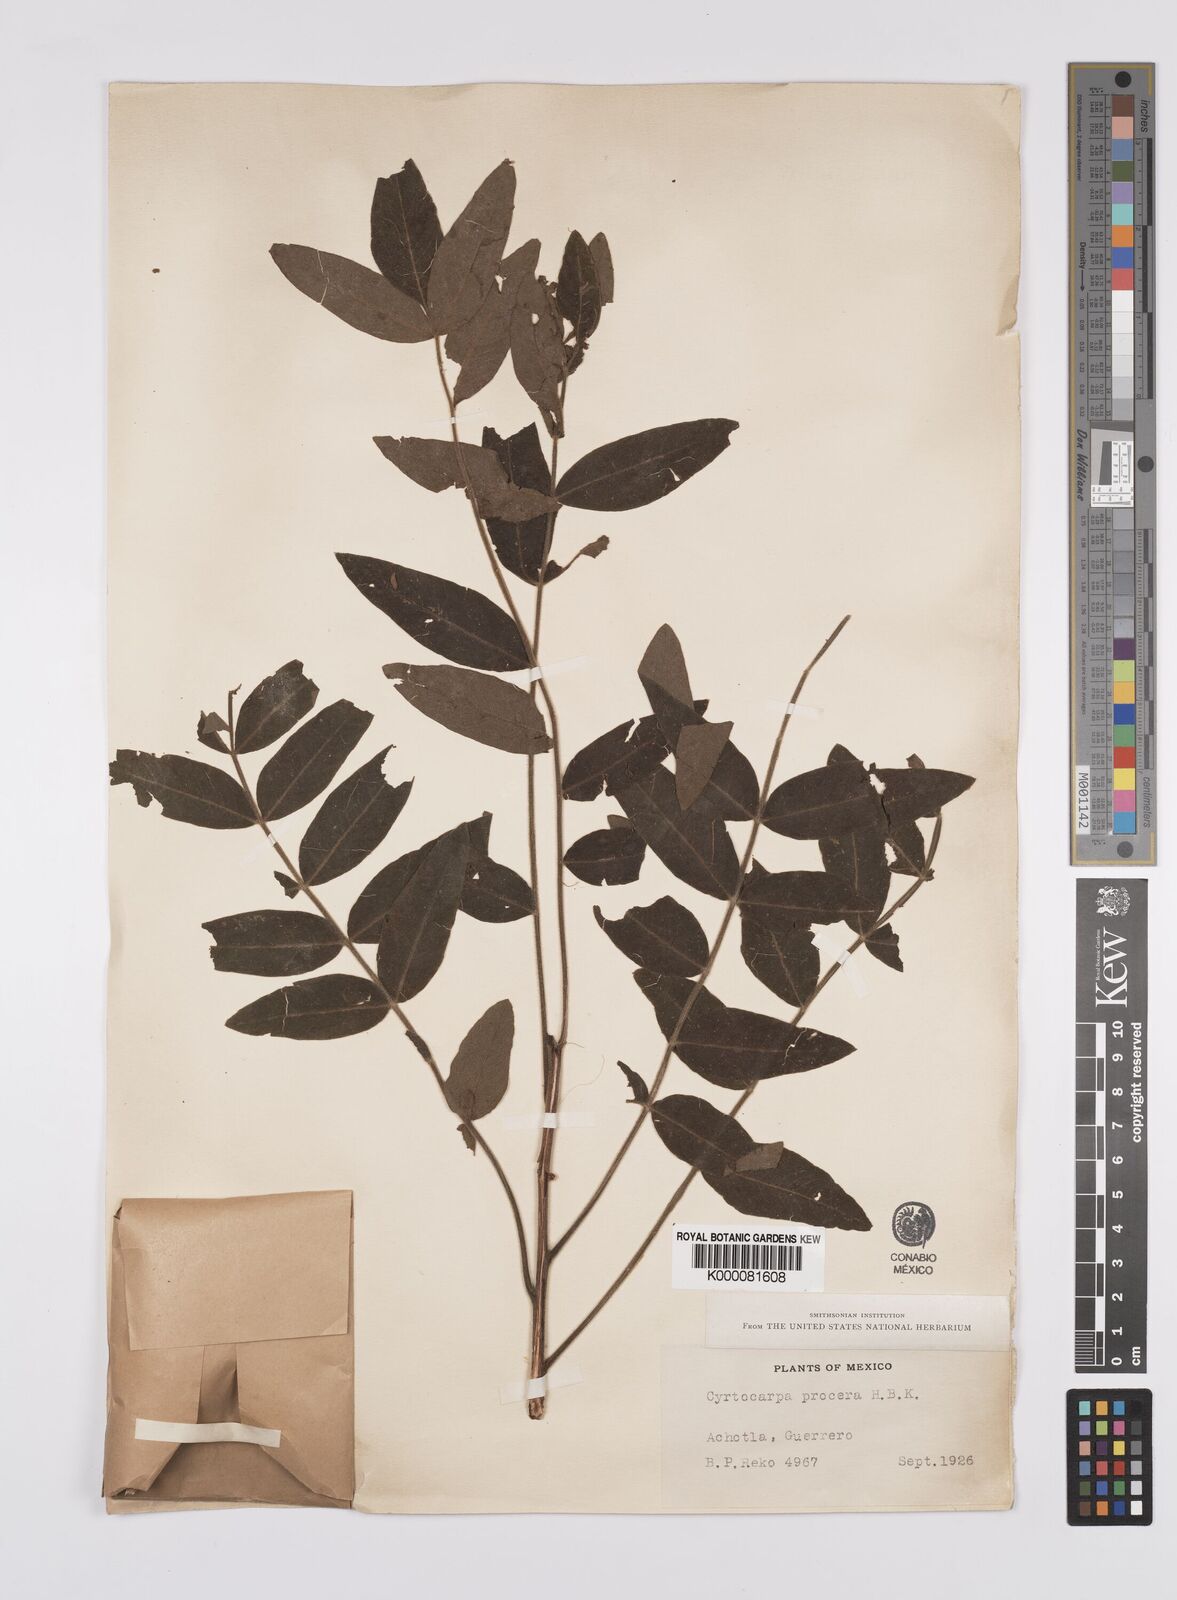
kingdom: Plantae
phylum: Tracheophyta
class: Magnoliopsida
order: Sapindales
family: Anacardiaceae
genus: Cyrtocarpa
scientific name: Cyrtocarpa procera
